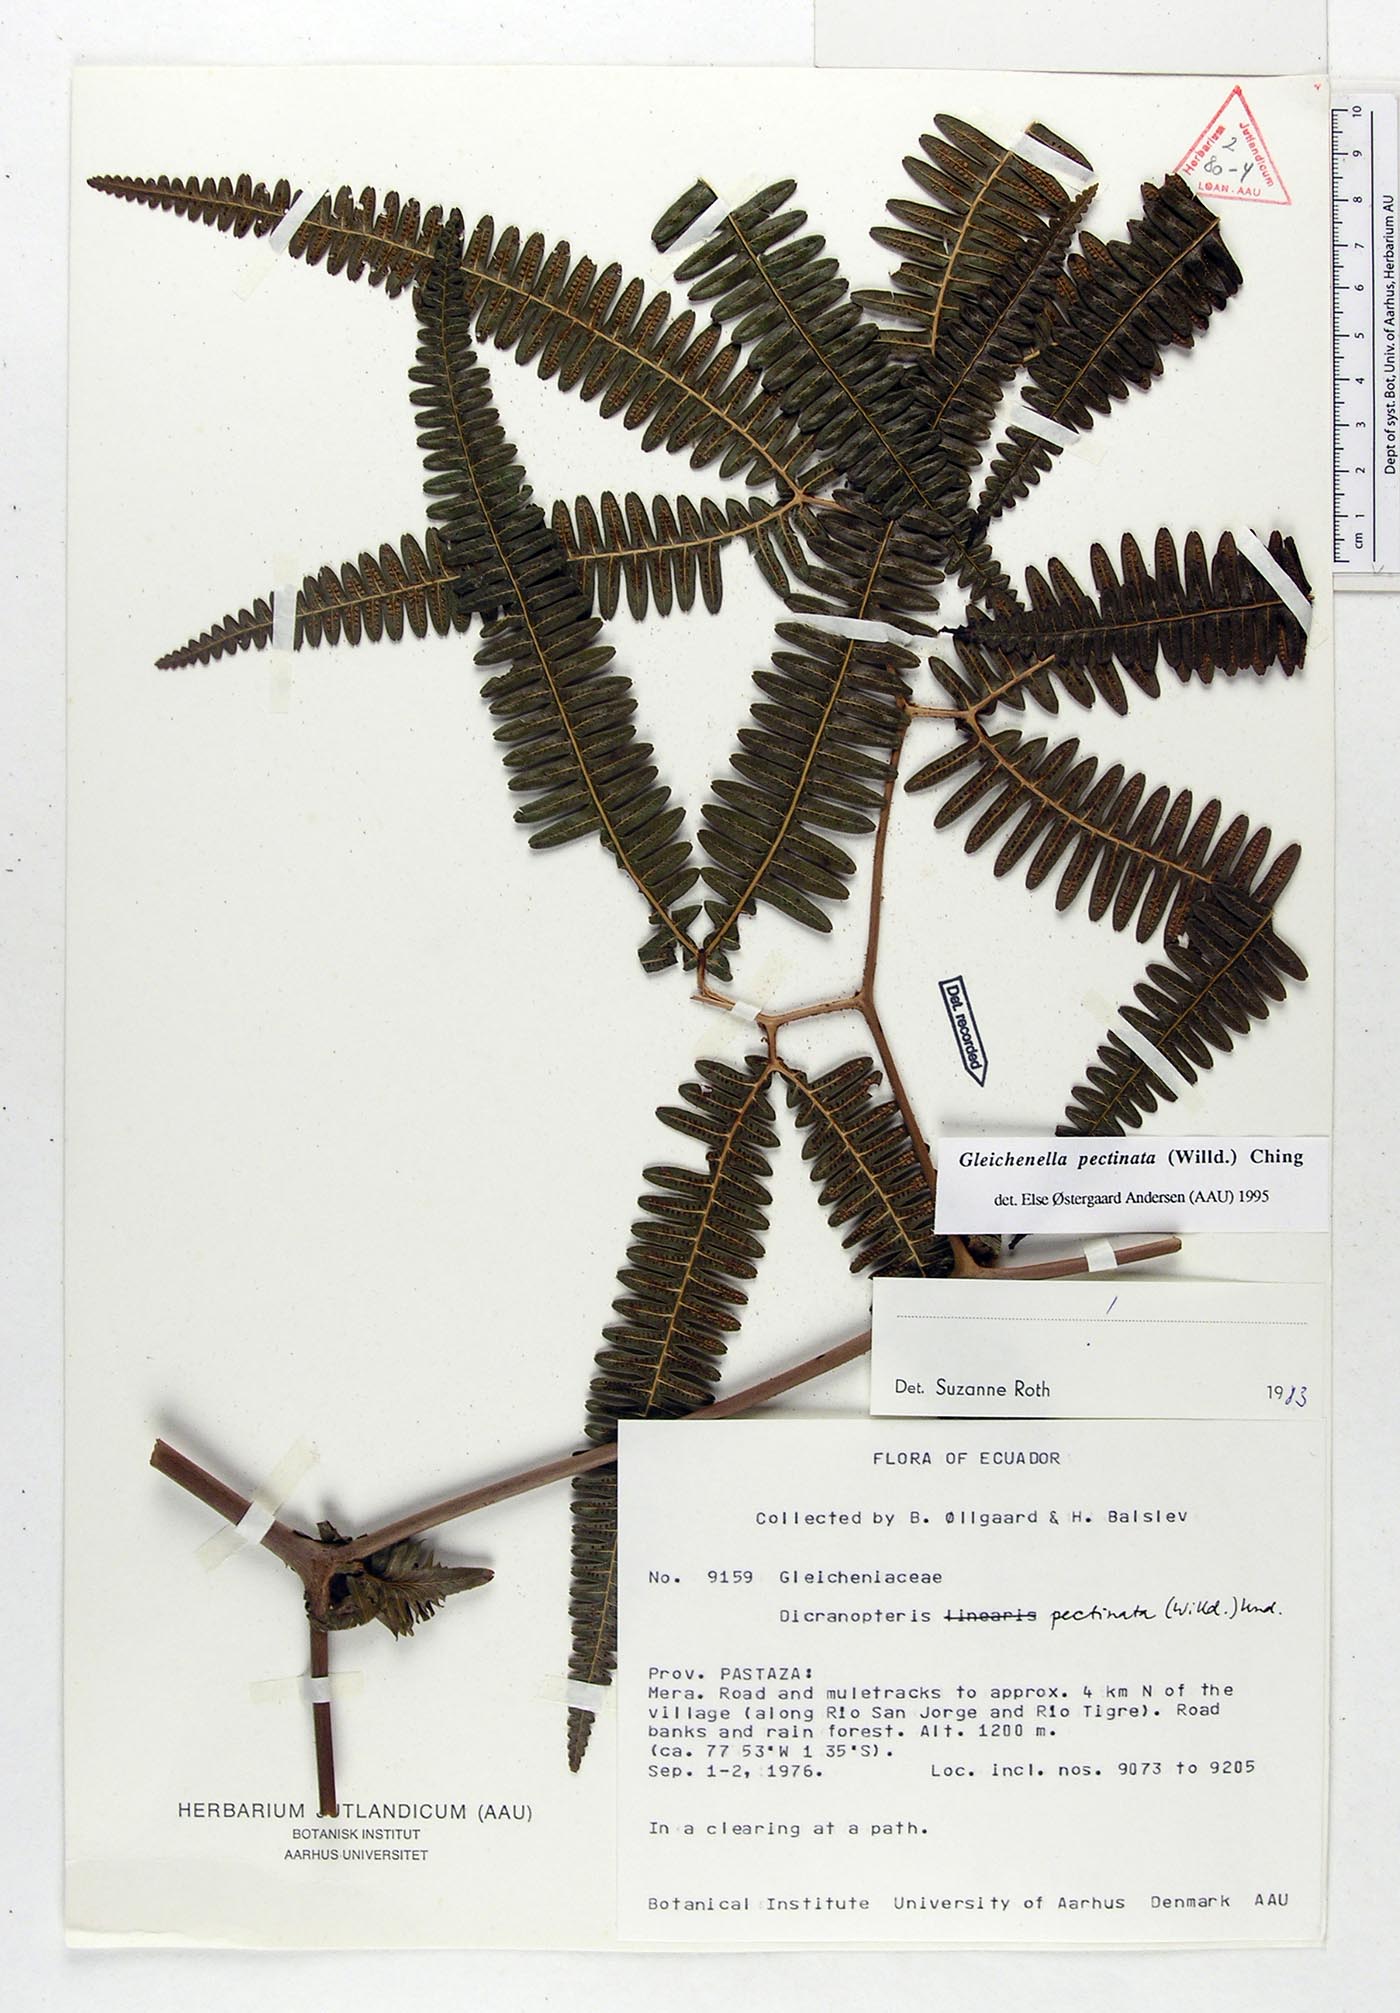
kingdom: Plantae
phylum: Tracheophyta
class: Polypodiopsida
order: Gleicheniales
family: Gleicheniaceae
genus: Gleichenella
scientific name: Gleichenella pectinata
